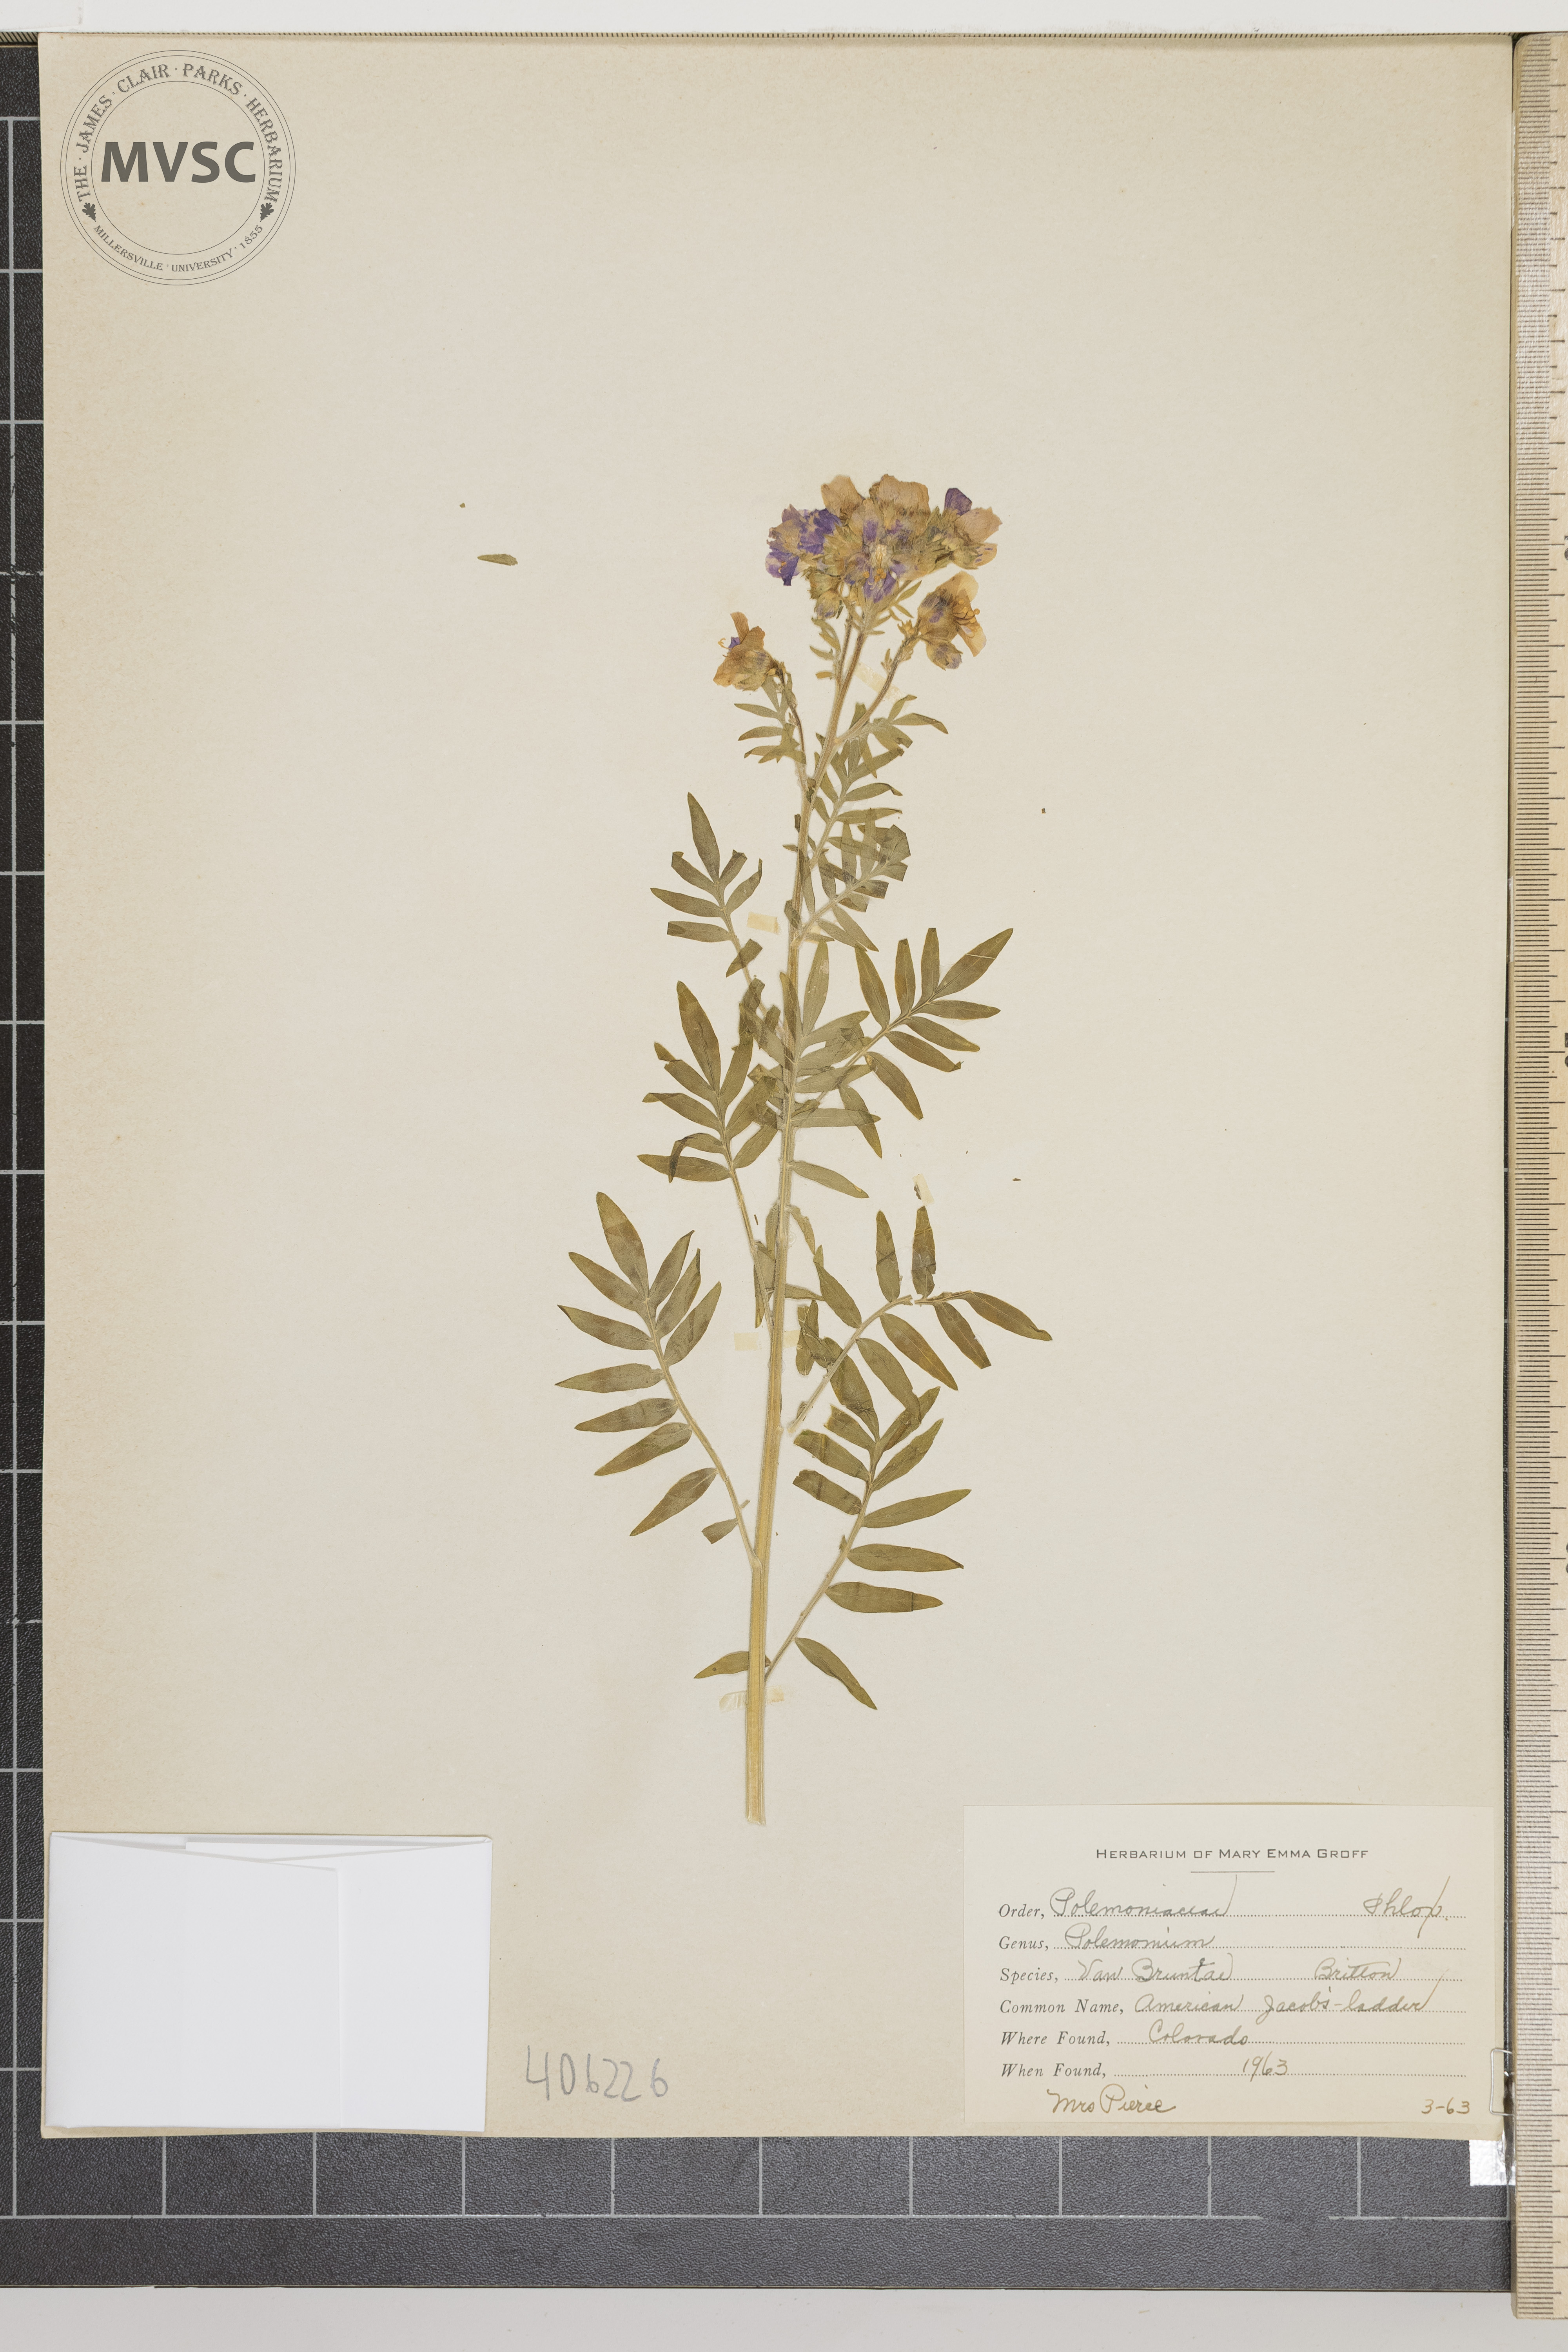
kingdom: Plantae
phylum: Tracheophyta
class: Magnoliopsida
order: Ericales
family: Polemoniaceae
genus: Polemonium
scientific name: Polemonium vanbruntiae
